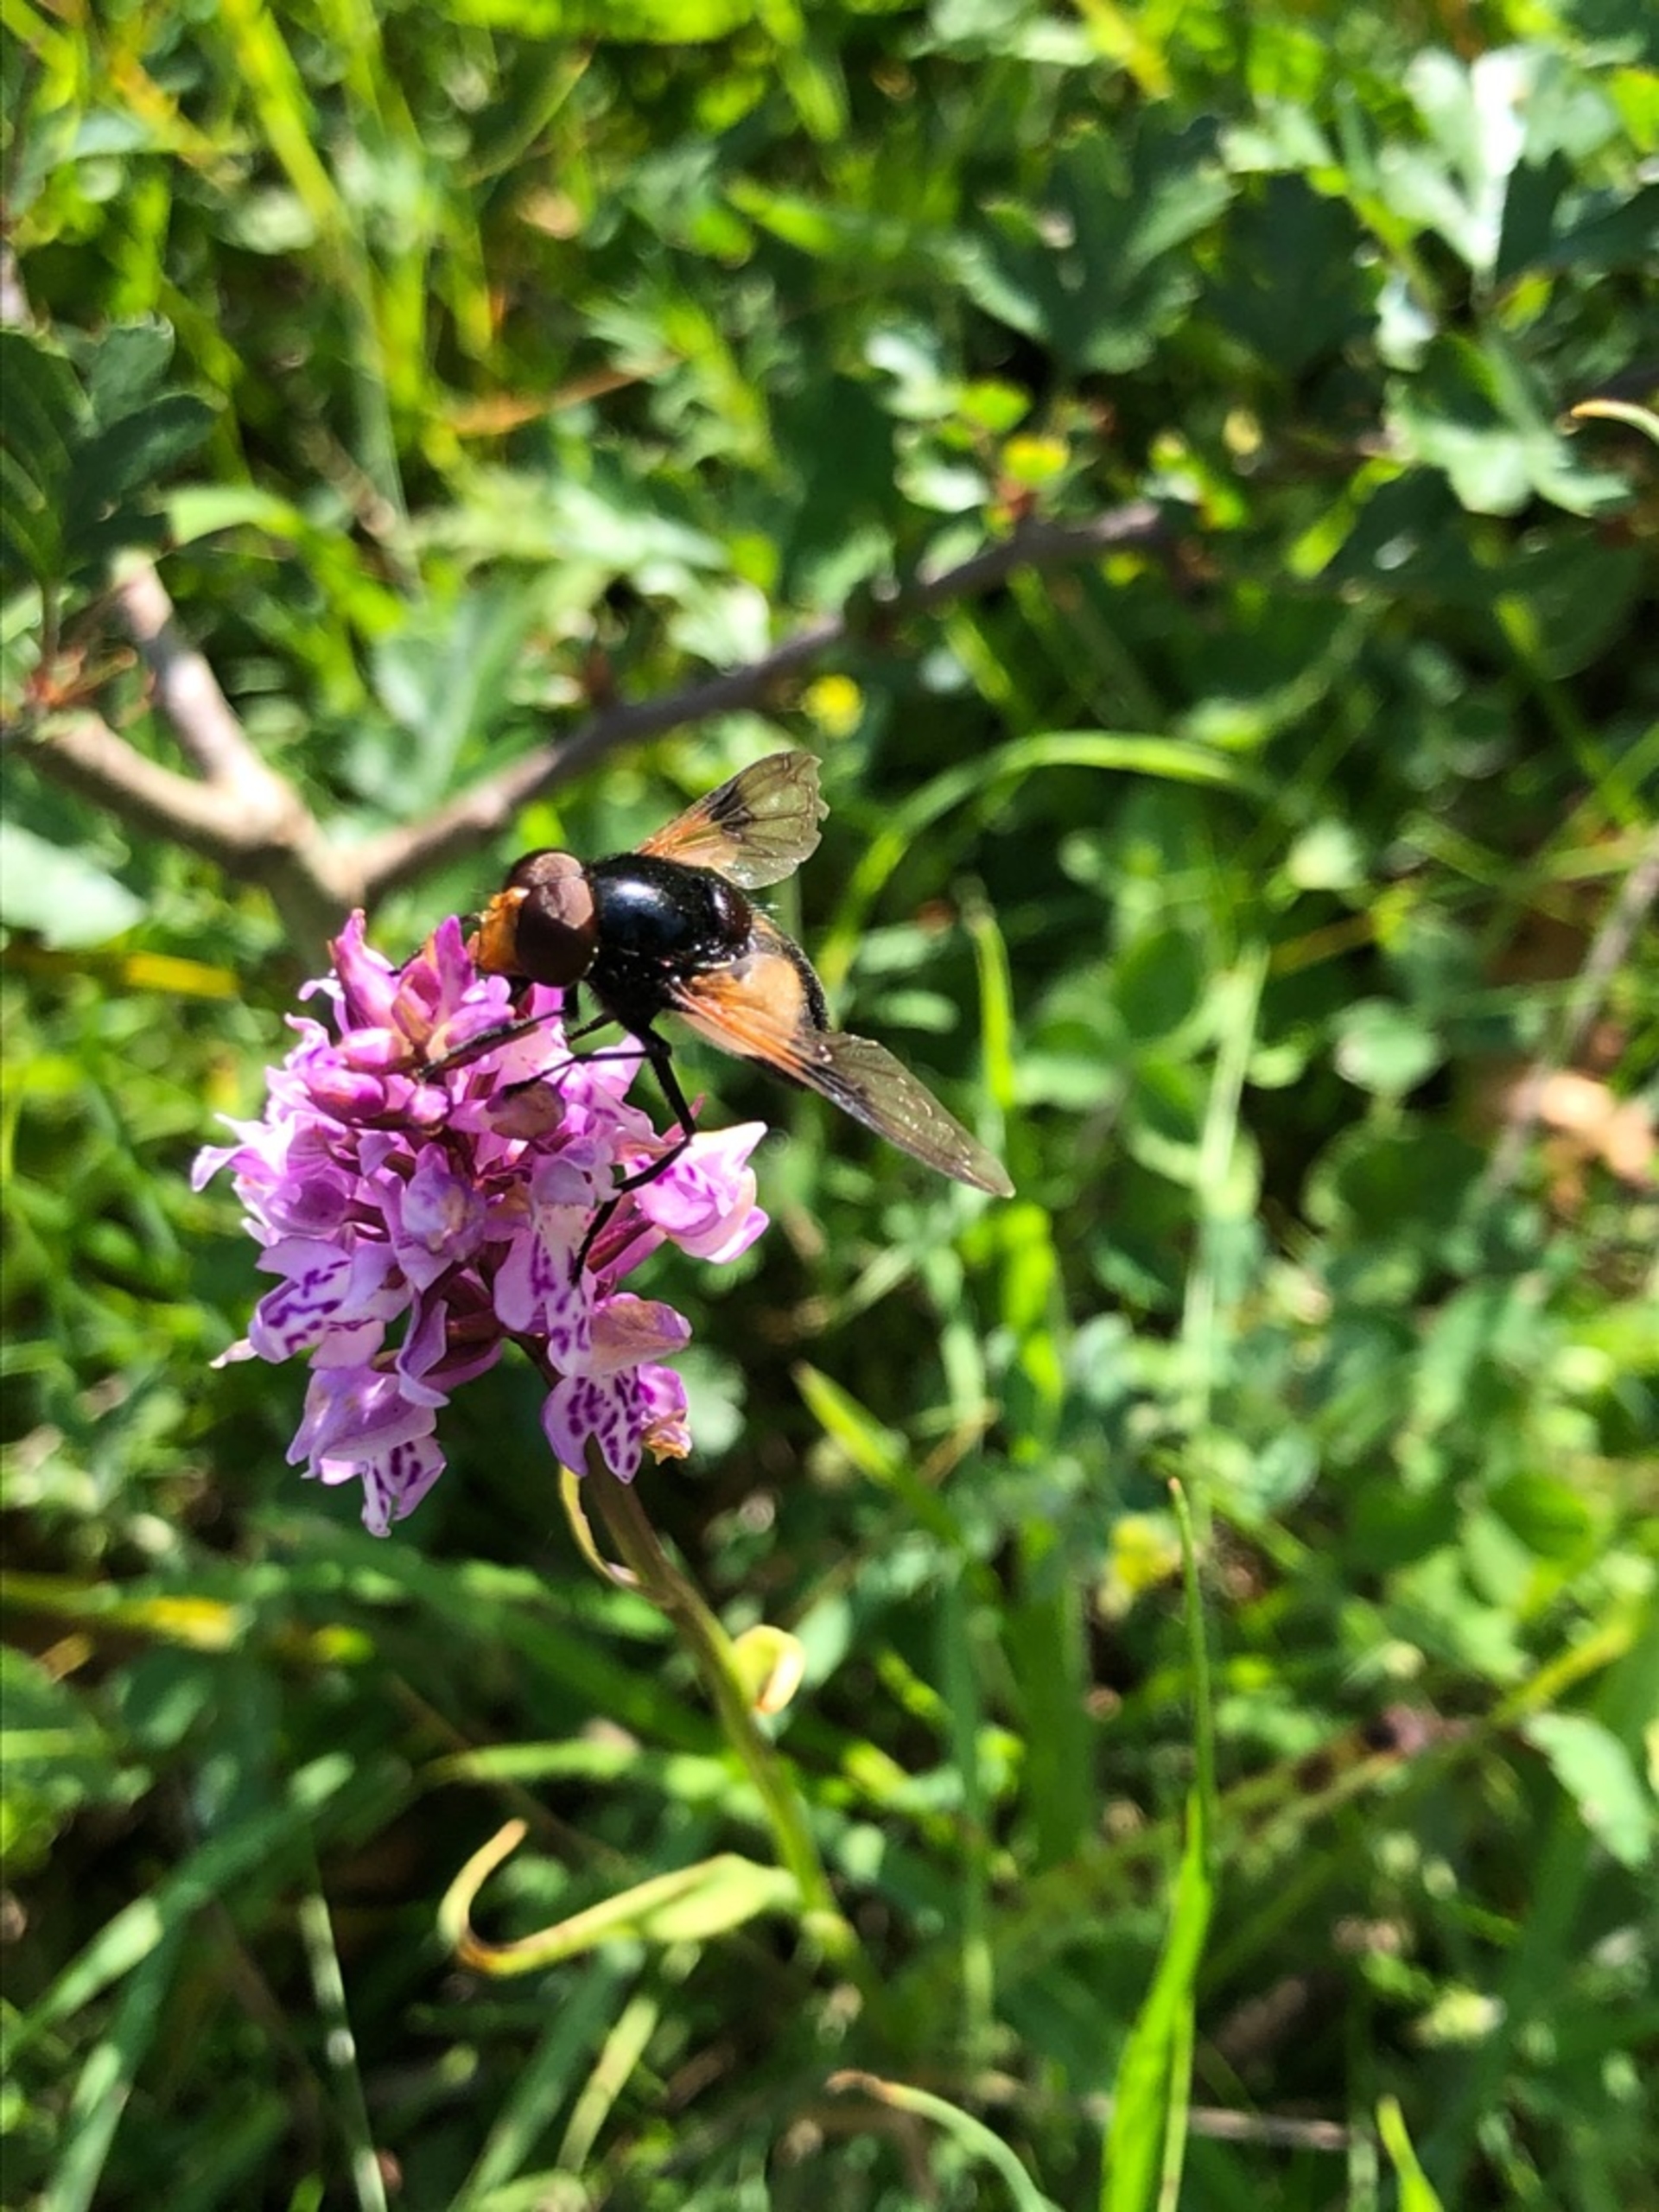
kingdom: Animalia
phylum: Arthropoda
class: Insecta
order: Diptera
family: Syrphidae
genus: Volucella
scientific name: Volucella pellucens
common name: Hvidbåndet humlesvirreflue
